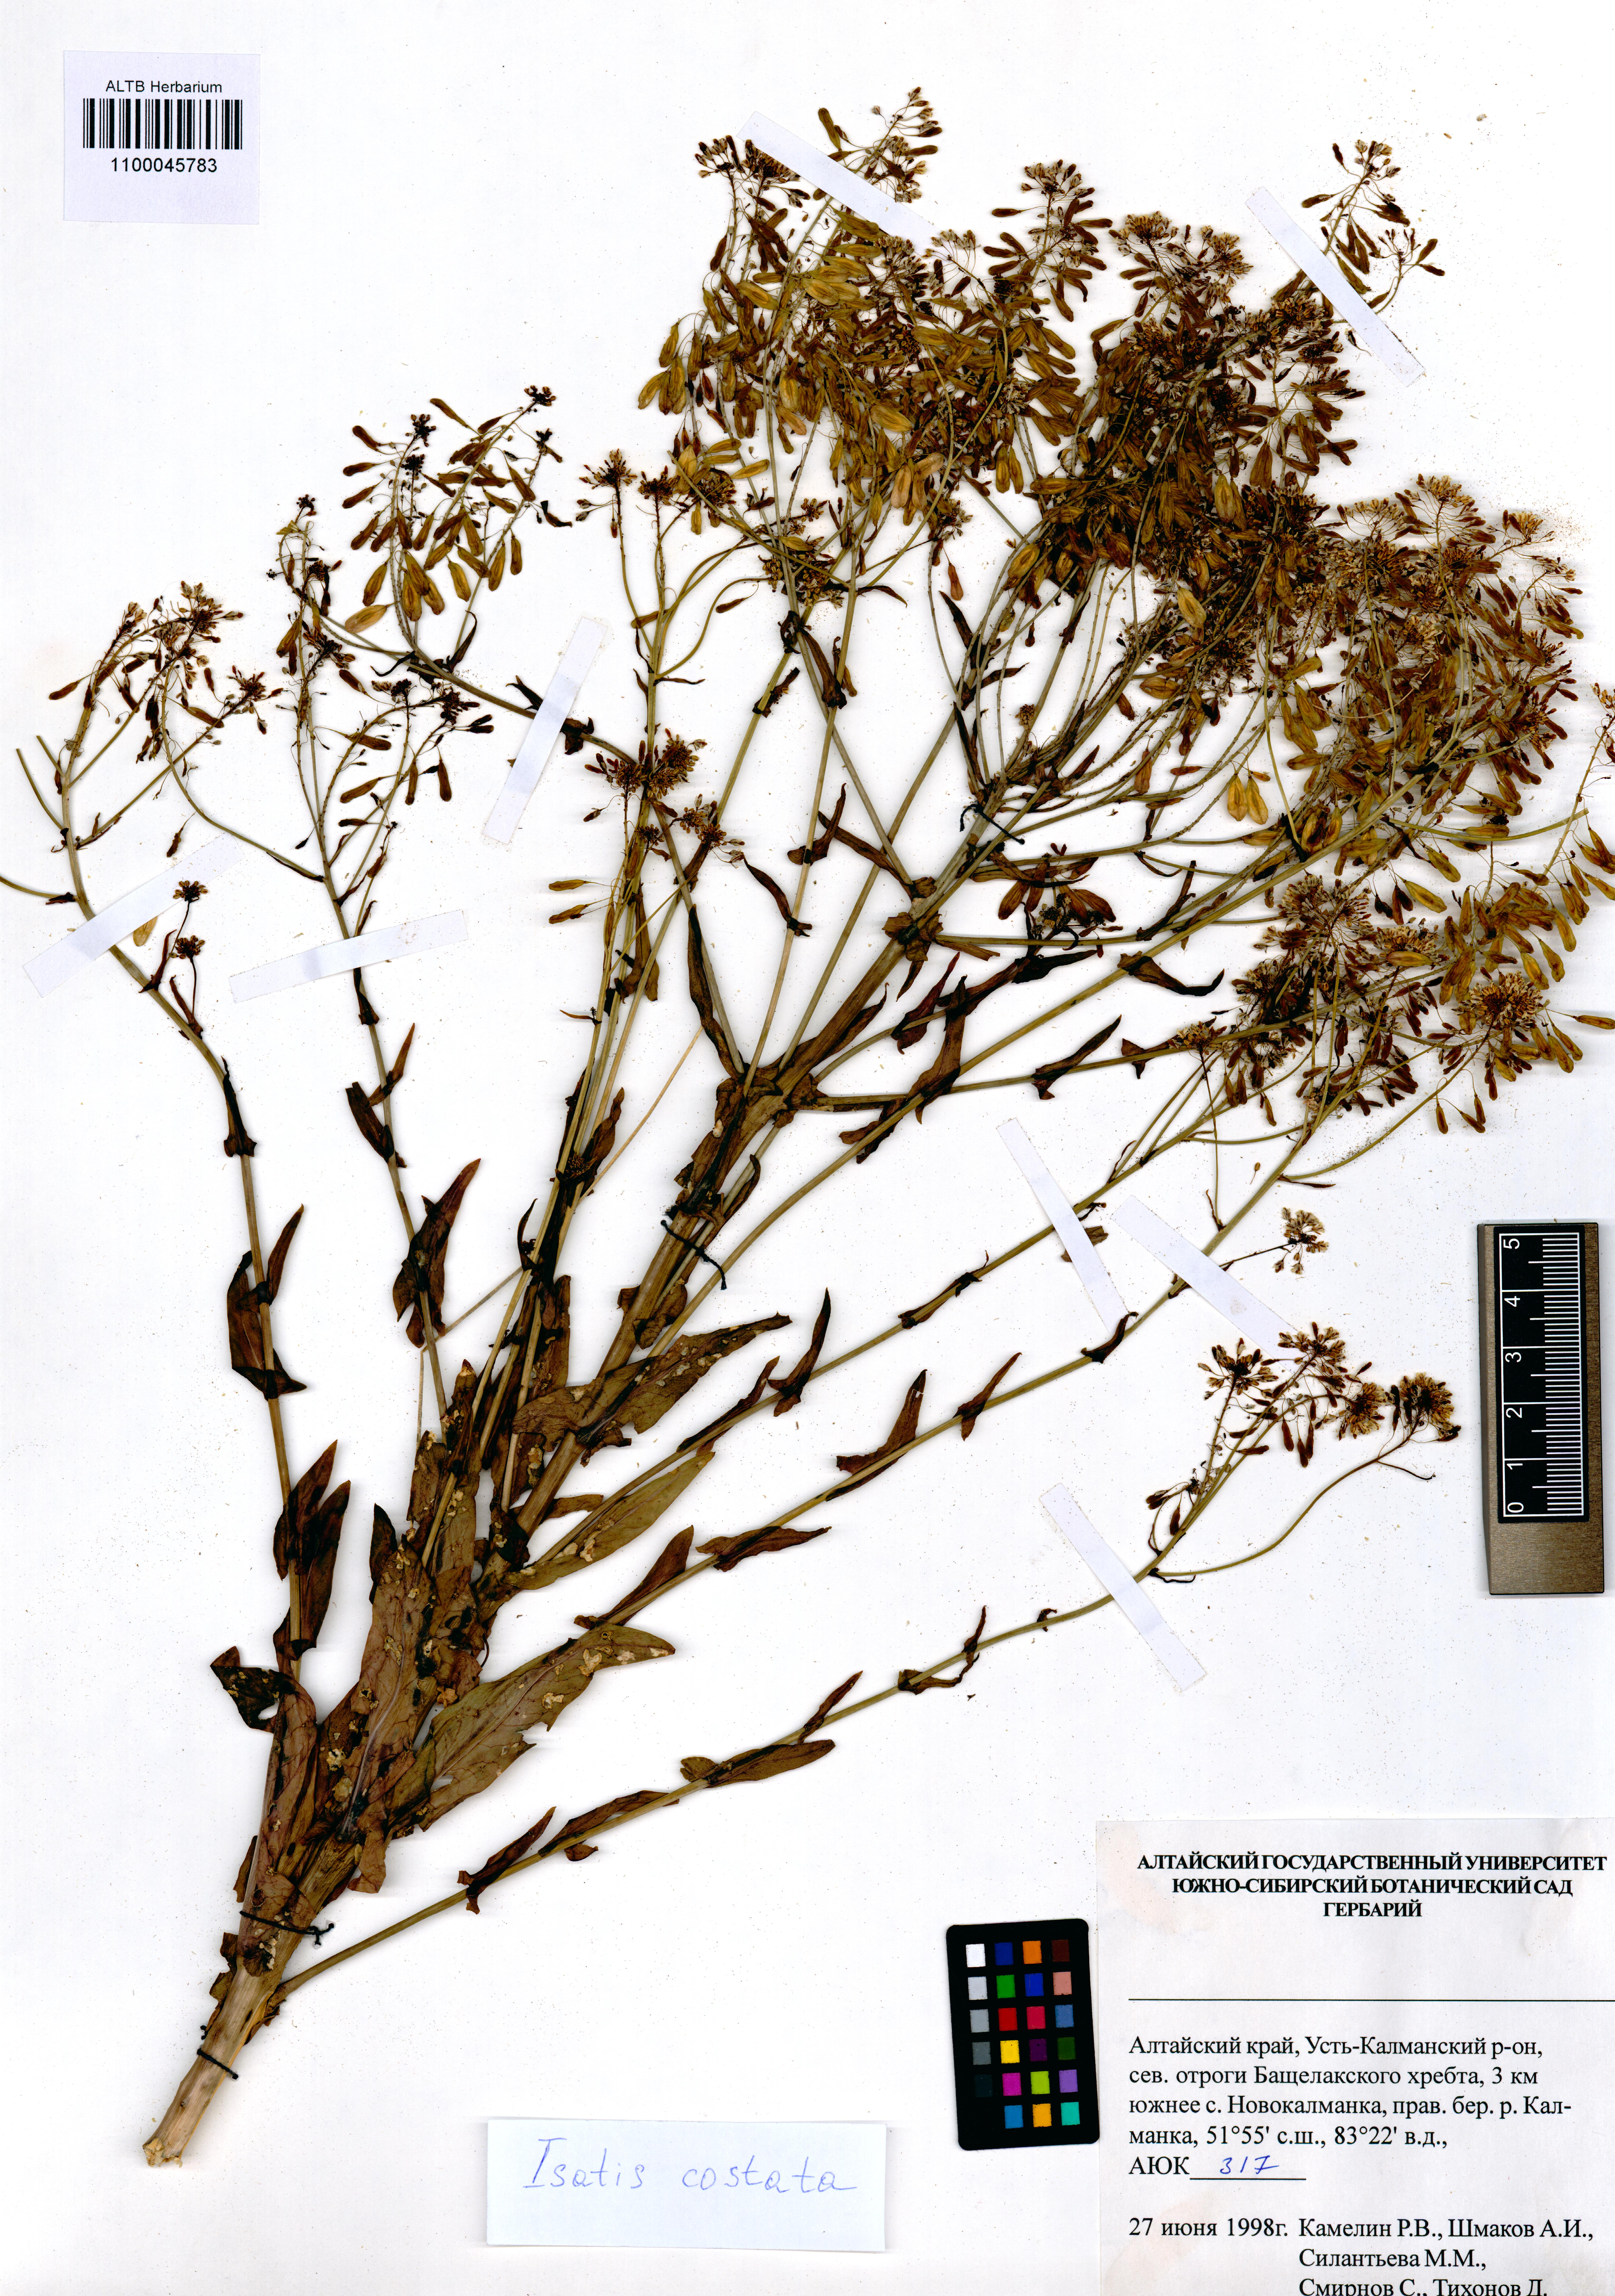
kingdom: Plantae
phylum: Tracheophyta
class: Magnoliopsida
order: Brassicales
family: Brassicaceae
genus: Isatis
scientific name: Isatis costata
